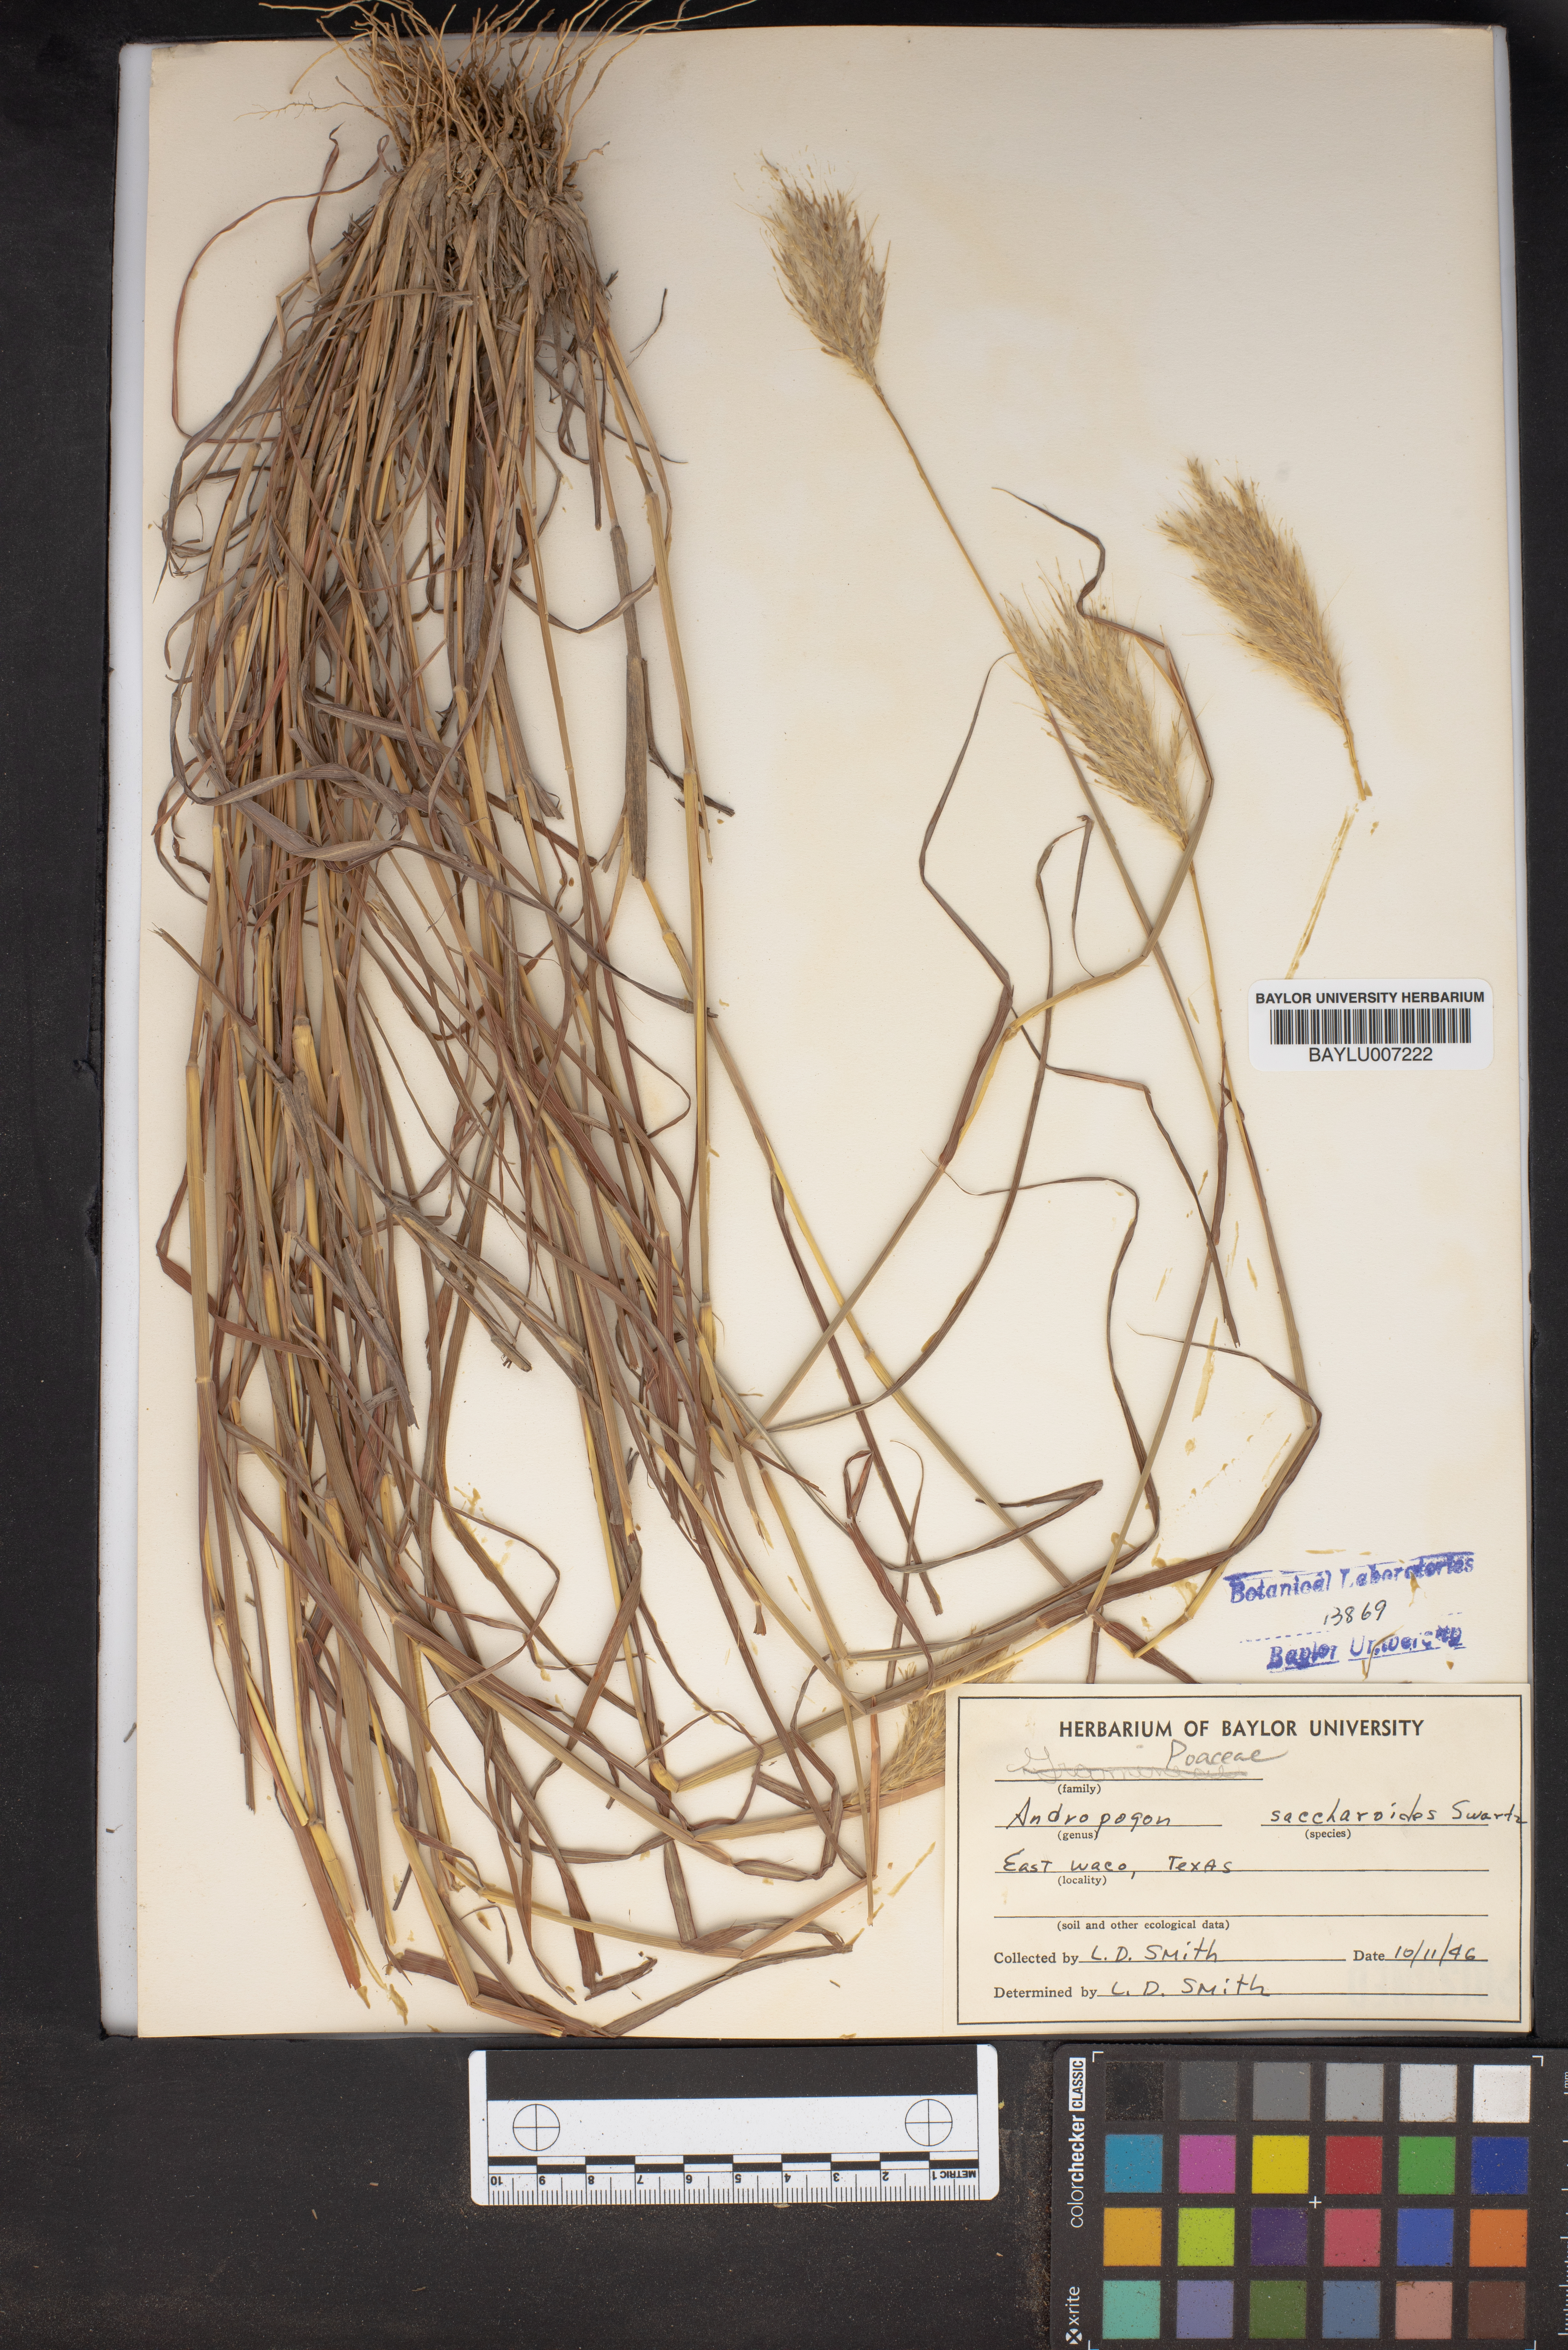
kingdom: Plantae
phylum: Tracheophyta
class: Liliopsida
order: Poales
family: Poaceae
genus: Bothriochloa
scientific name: Bothriochloa saccharoides
